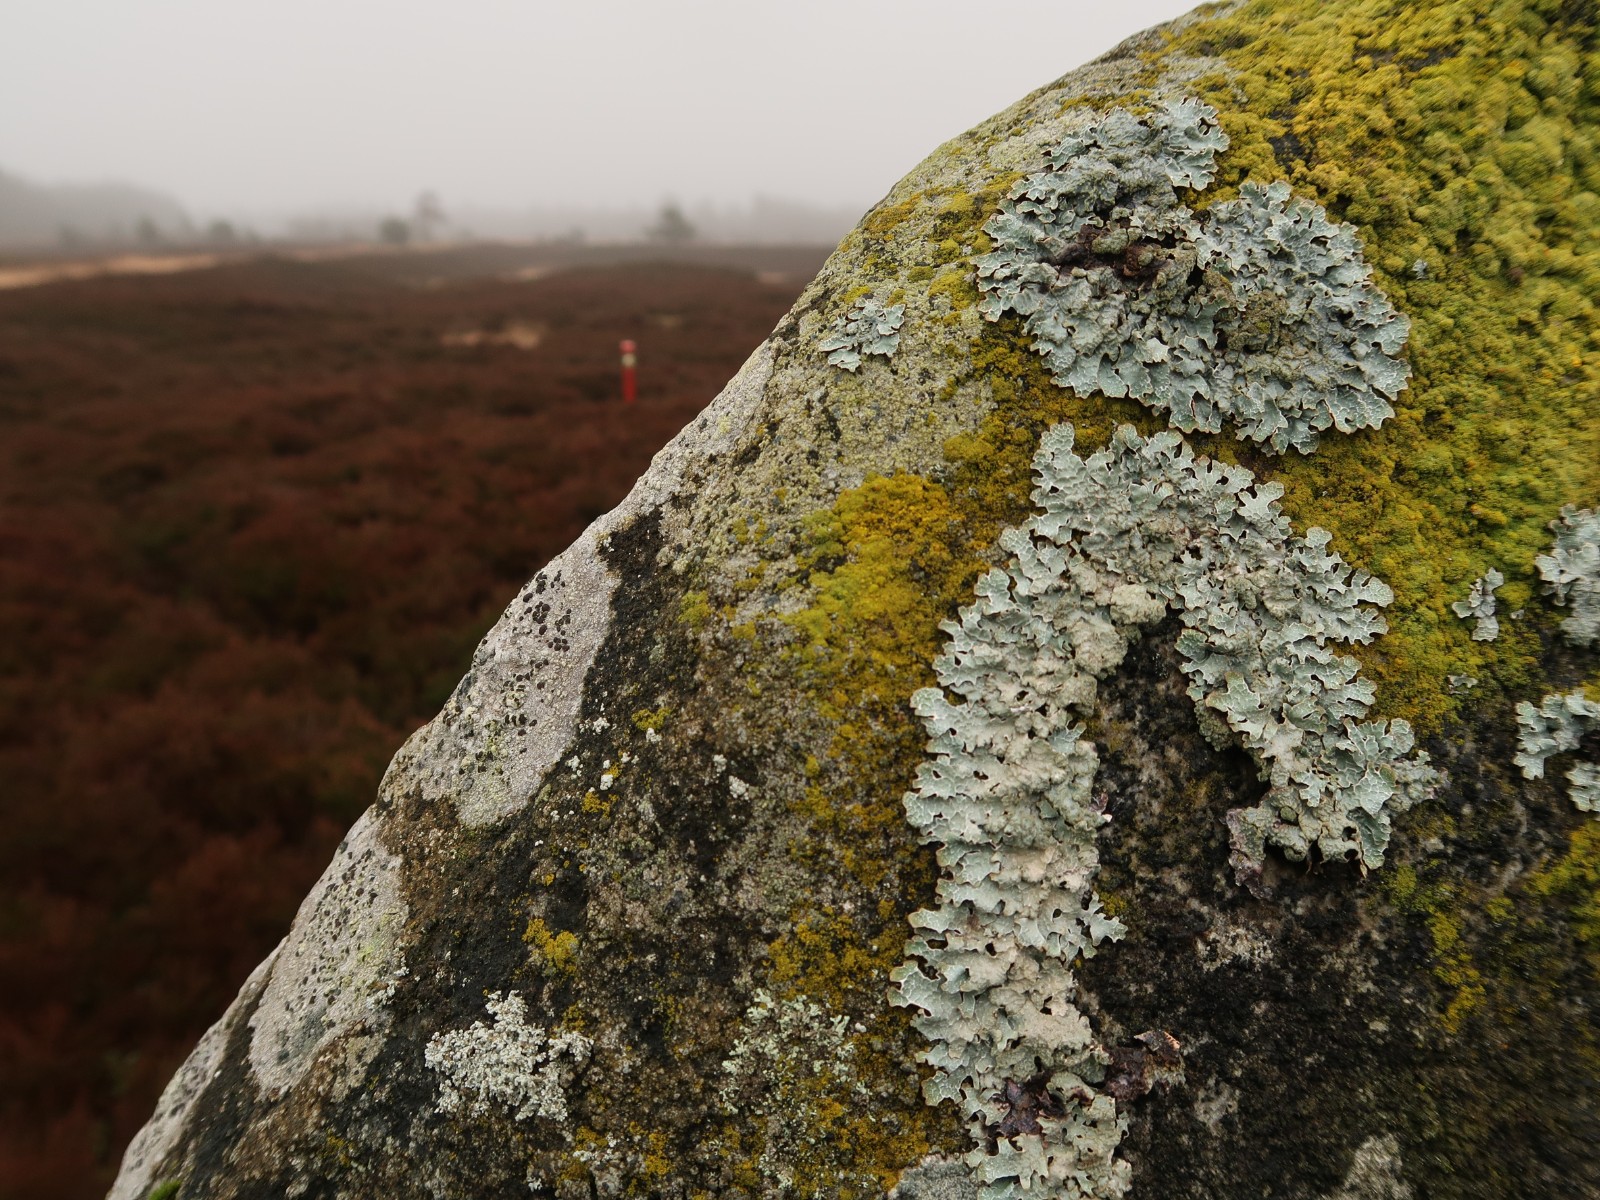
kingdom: Fungi
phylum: Ascomycota
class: Lecanoromycetes
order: Lecanorales
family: Parmeliaceae
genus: Parmelia
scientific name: Parmelia sulcata
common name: rynket skållav
